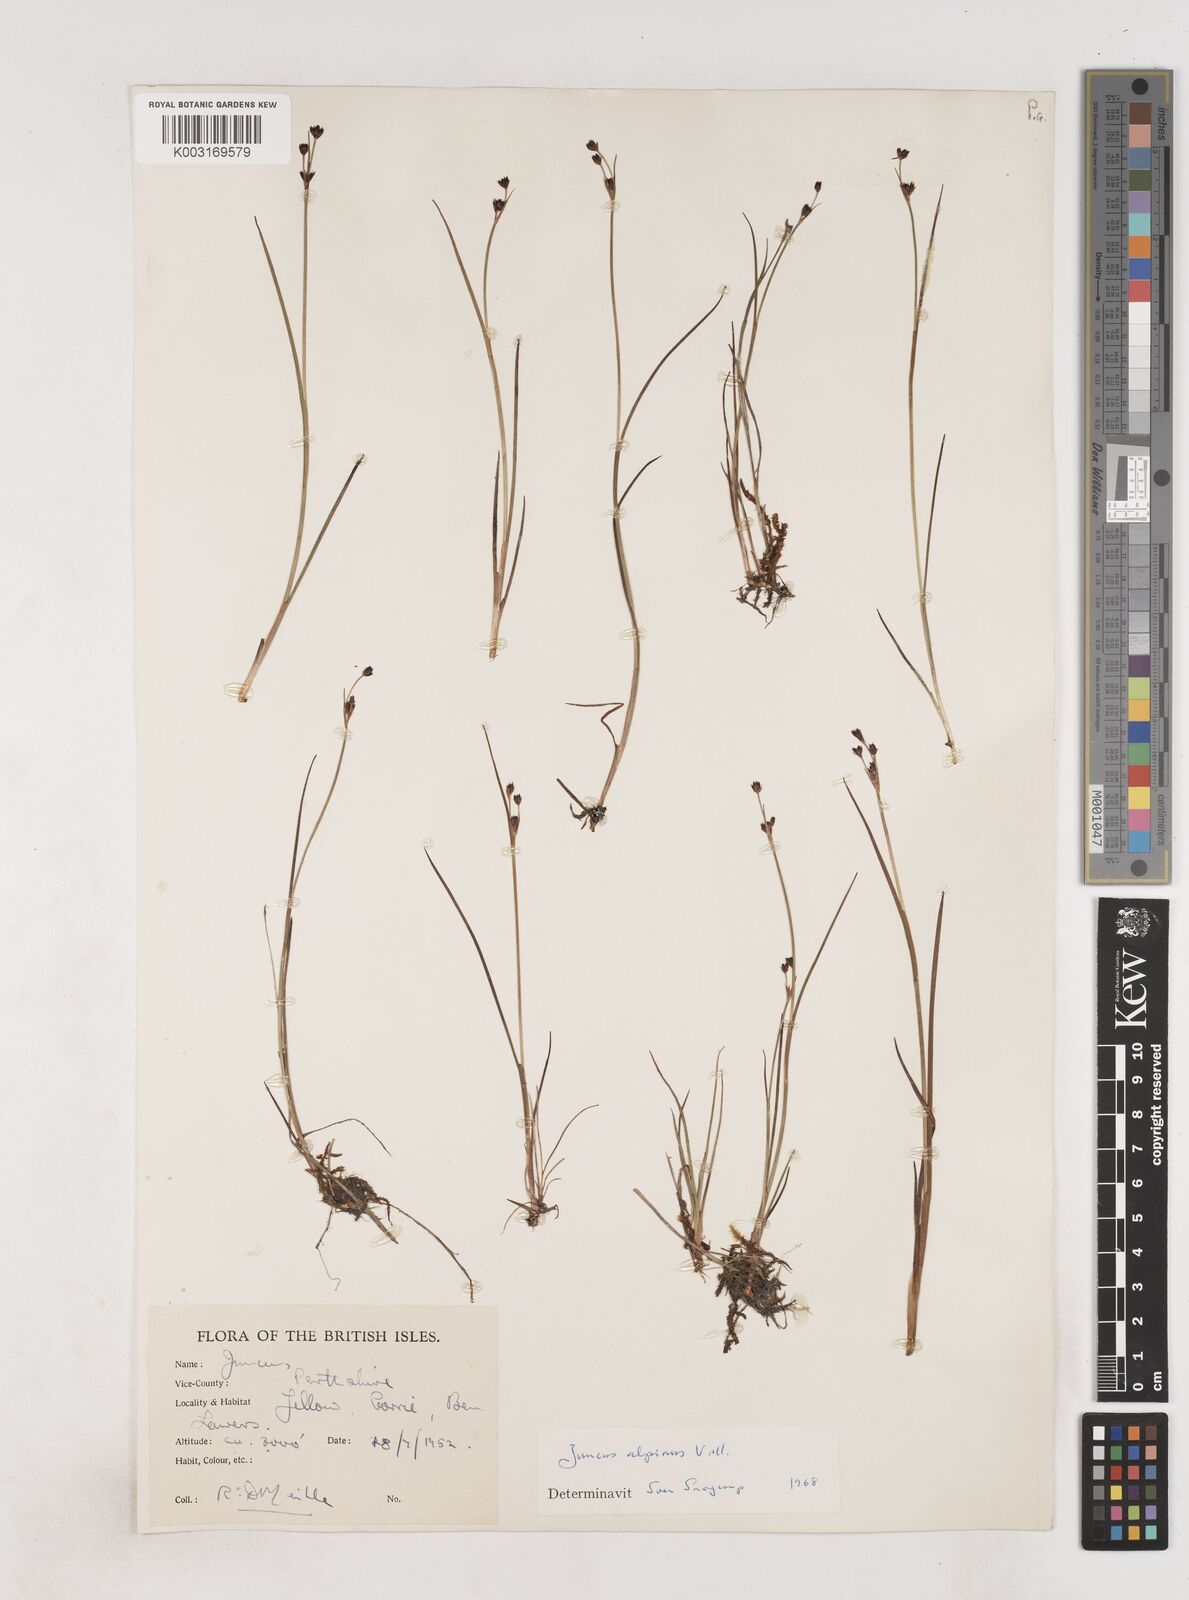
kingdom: Plantae
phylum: Tracheophyta
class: Liliopsida
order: Poales
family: Juncaceae
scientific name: Juncaceae
